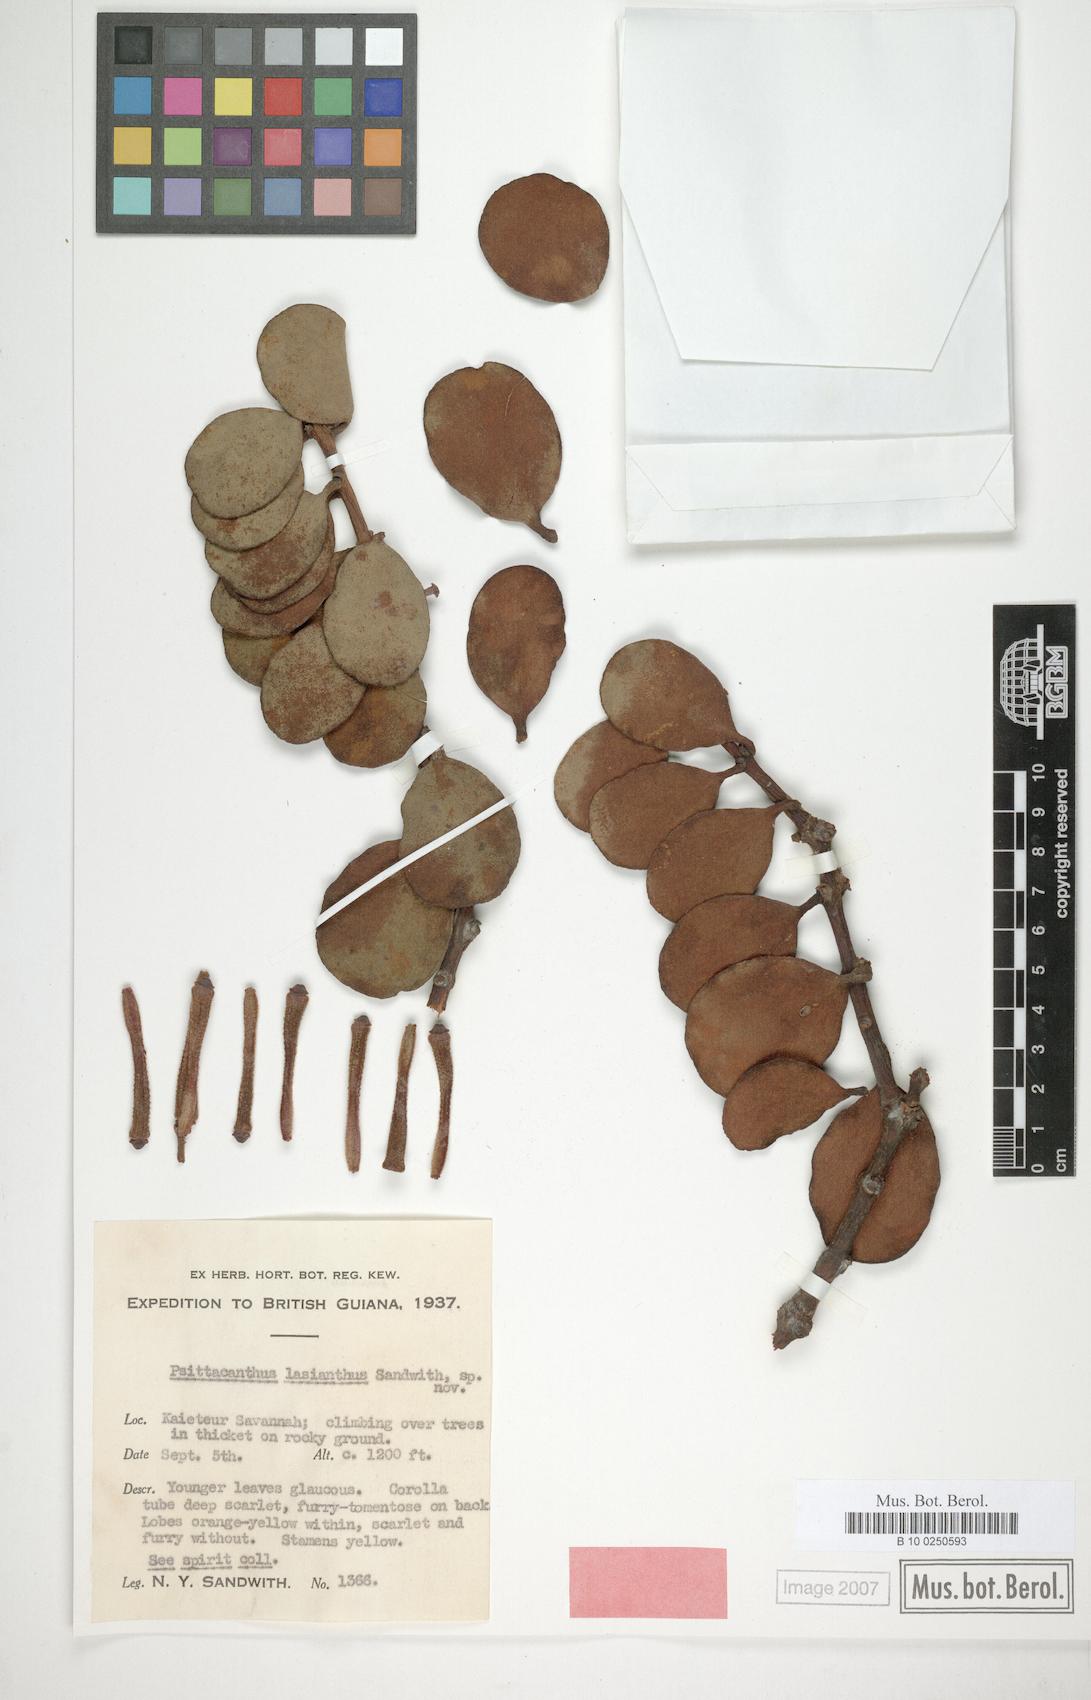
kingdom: Plantae
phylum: Tracheophyta
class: Magnoliopsida
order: Santalales
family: Loranthaceae
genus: Psittacanthus
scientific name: Psittacanthus lasianthus
